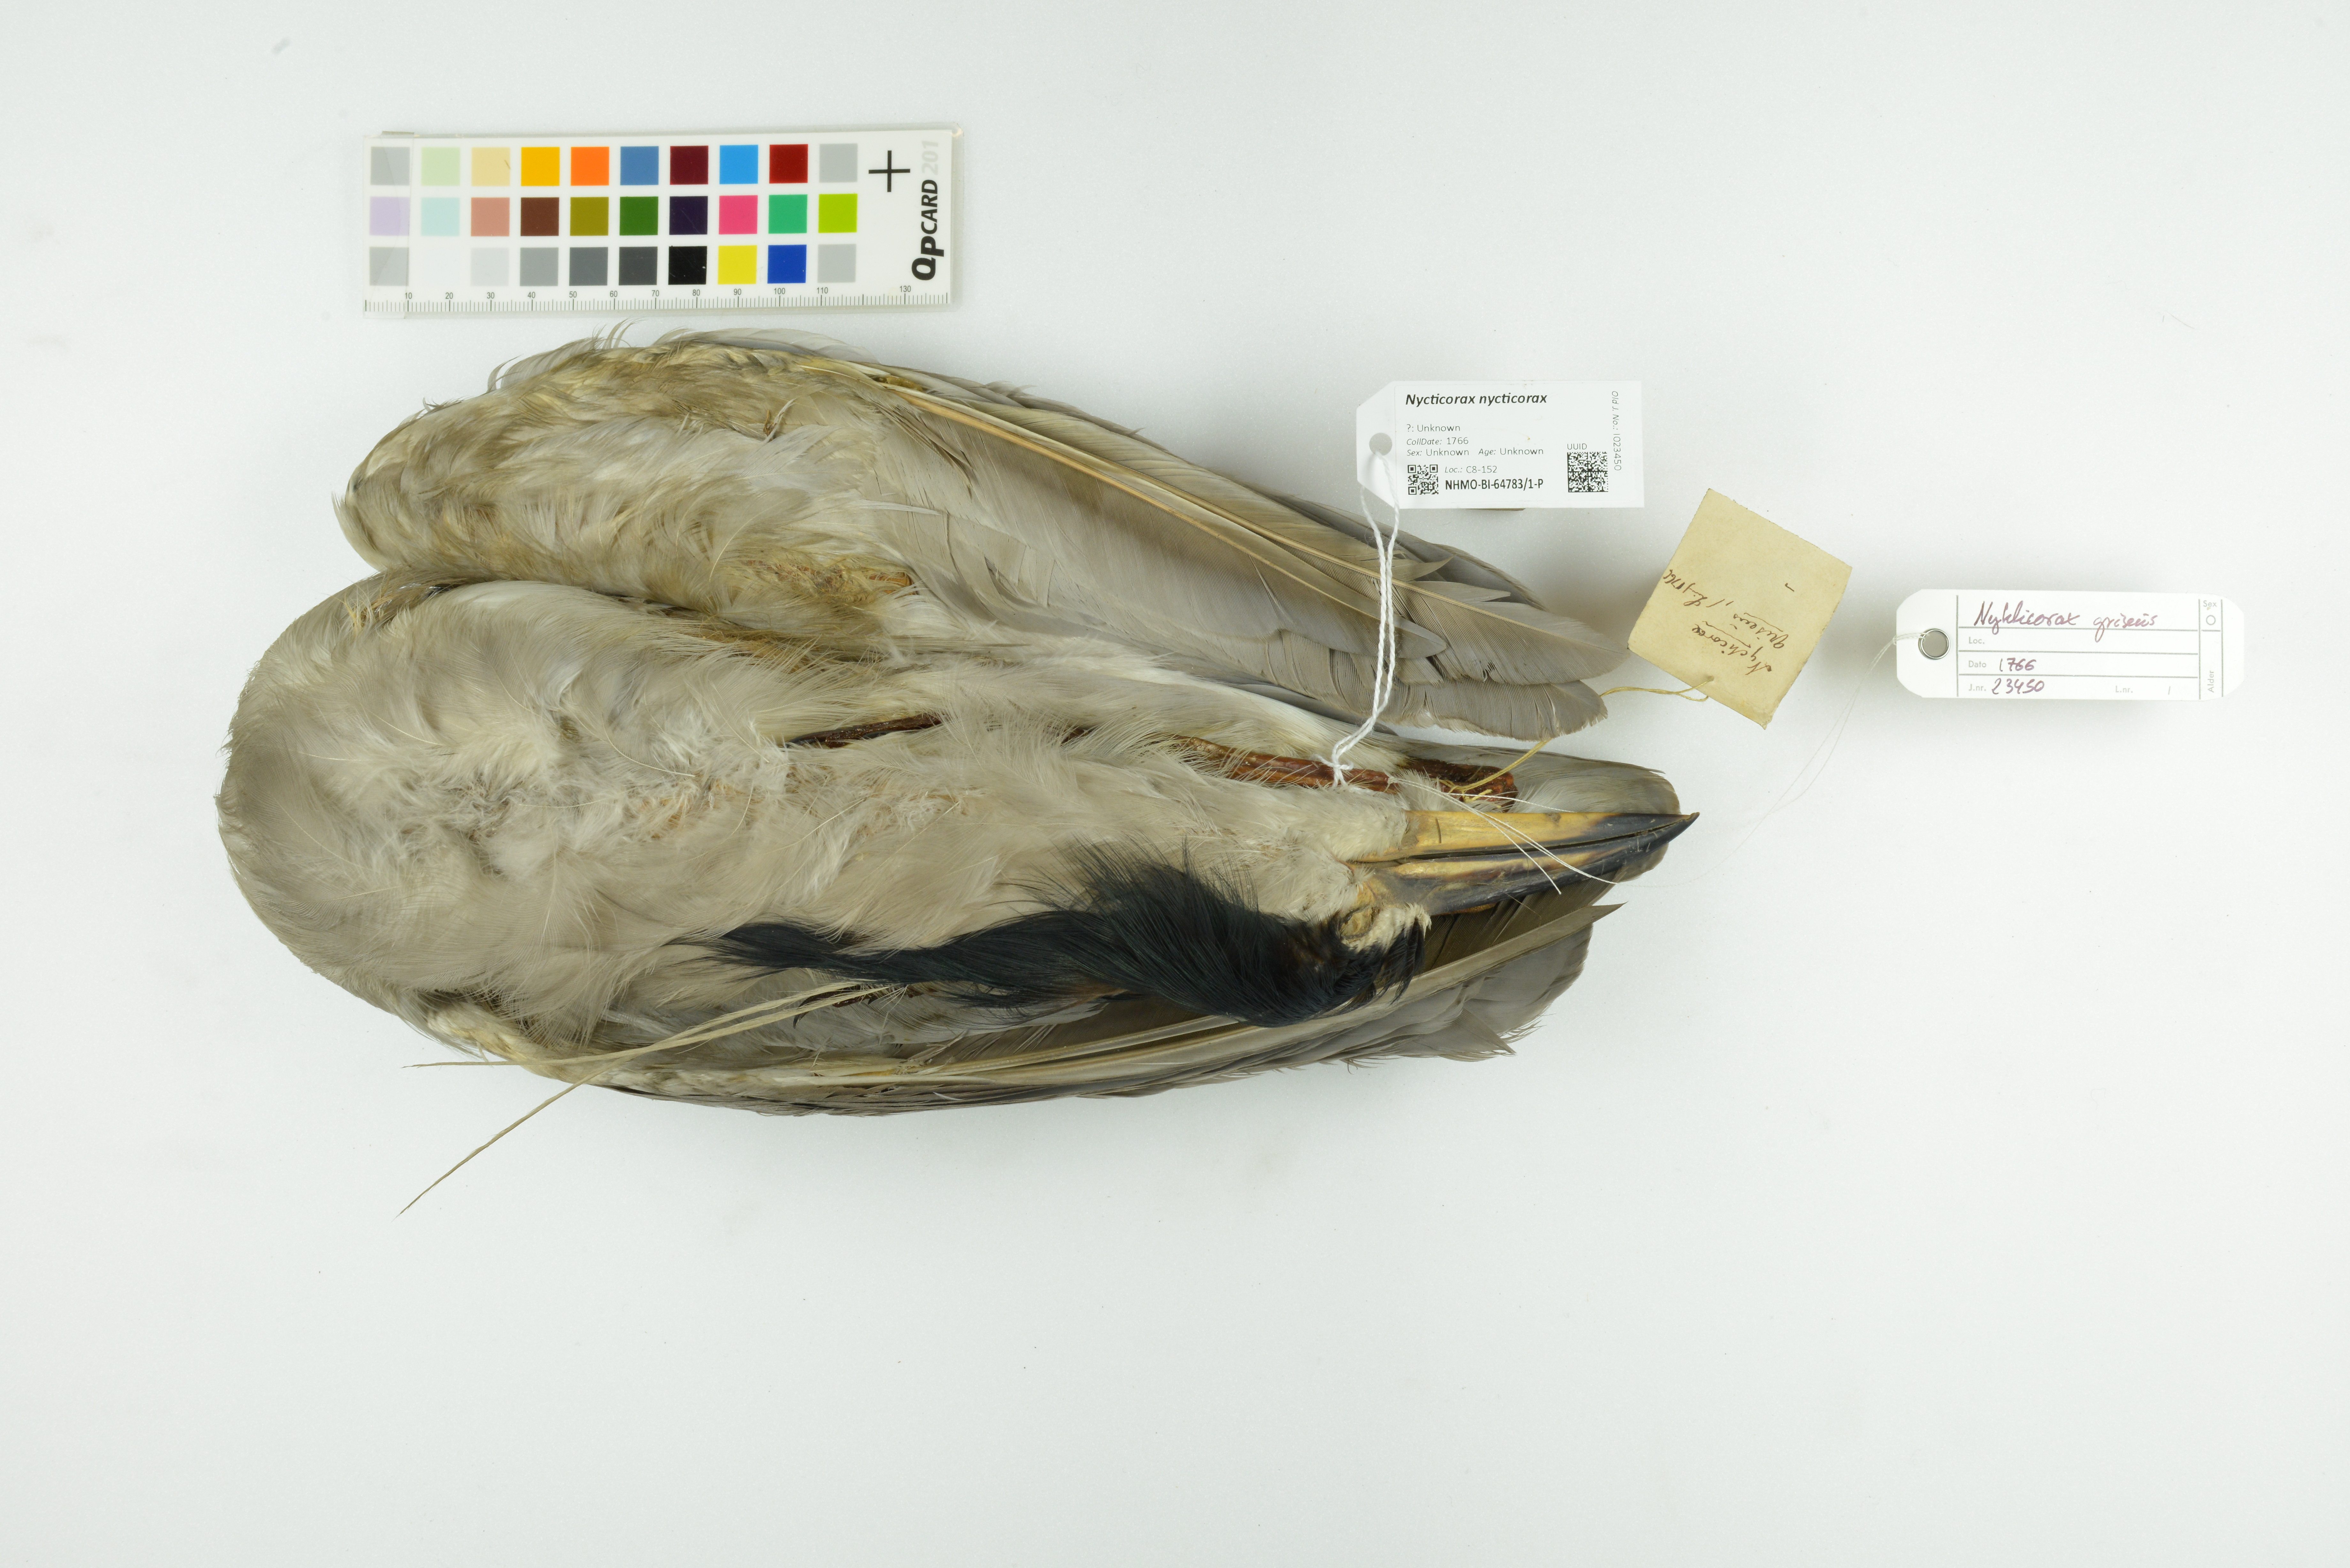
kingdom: Animalia
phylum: Chordata
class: Aves
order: Pelecaniformes
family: Ardeidae
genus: Nycticorax
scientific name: Nycticorax nycticorax
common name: Black-crowned night heron
